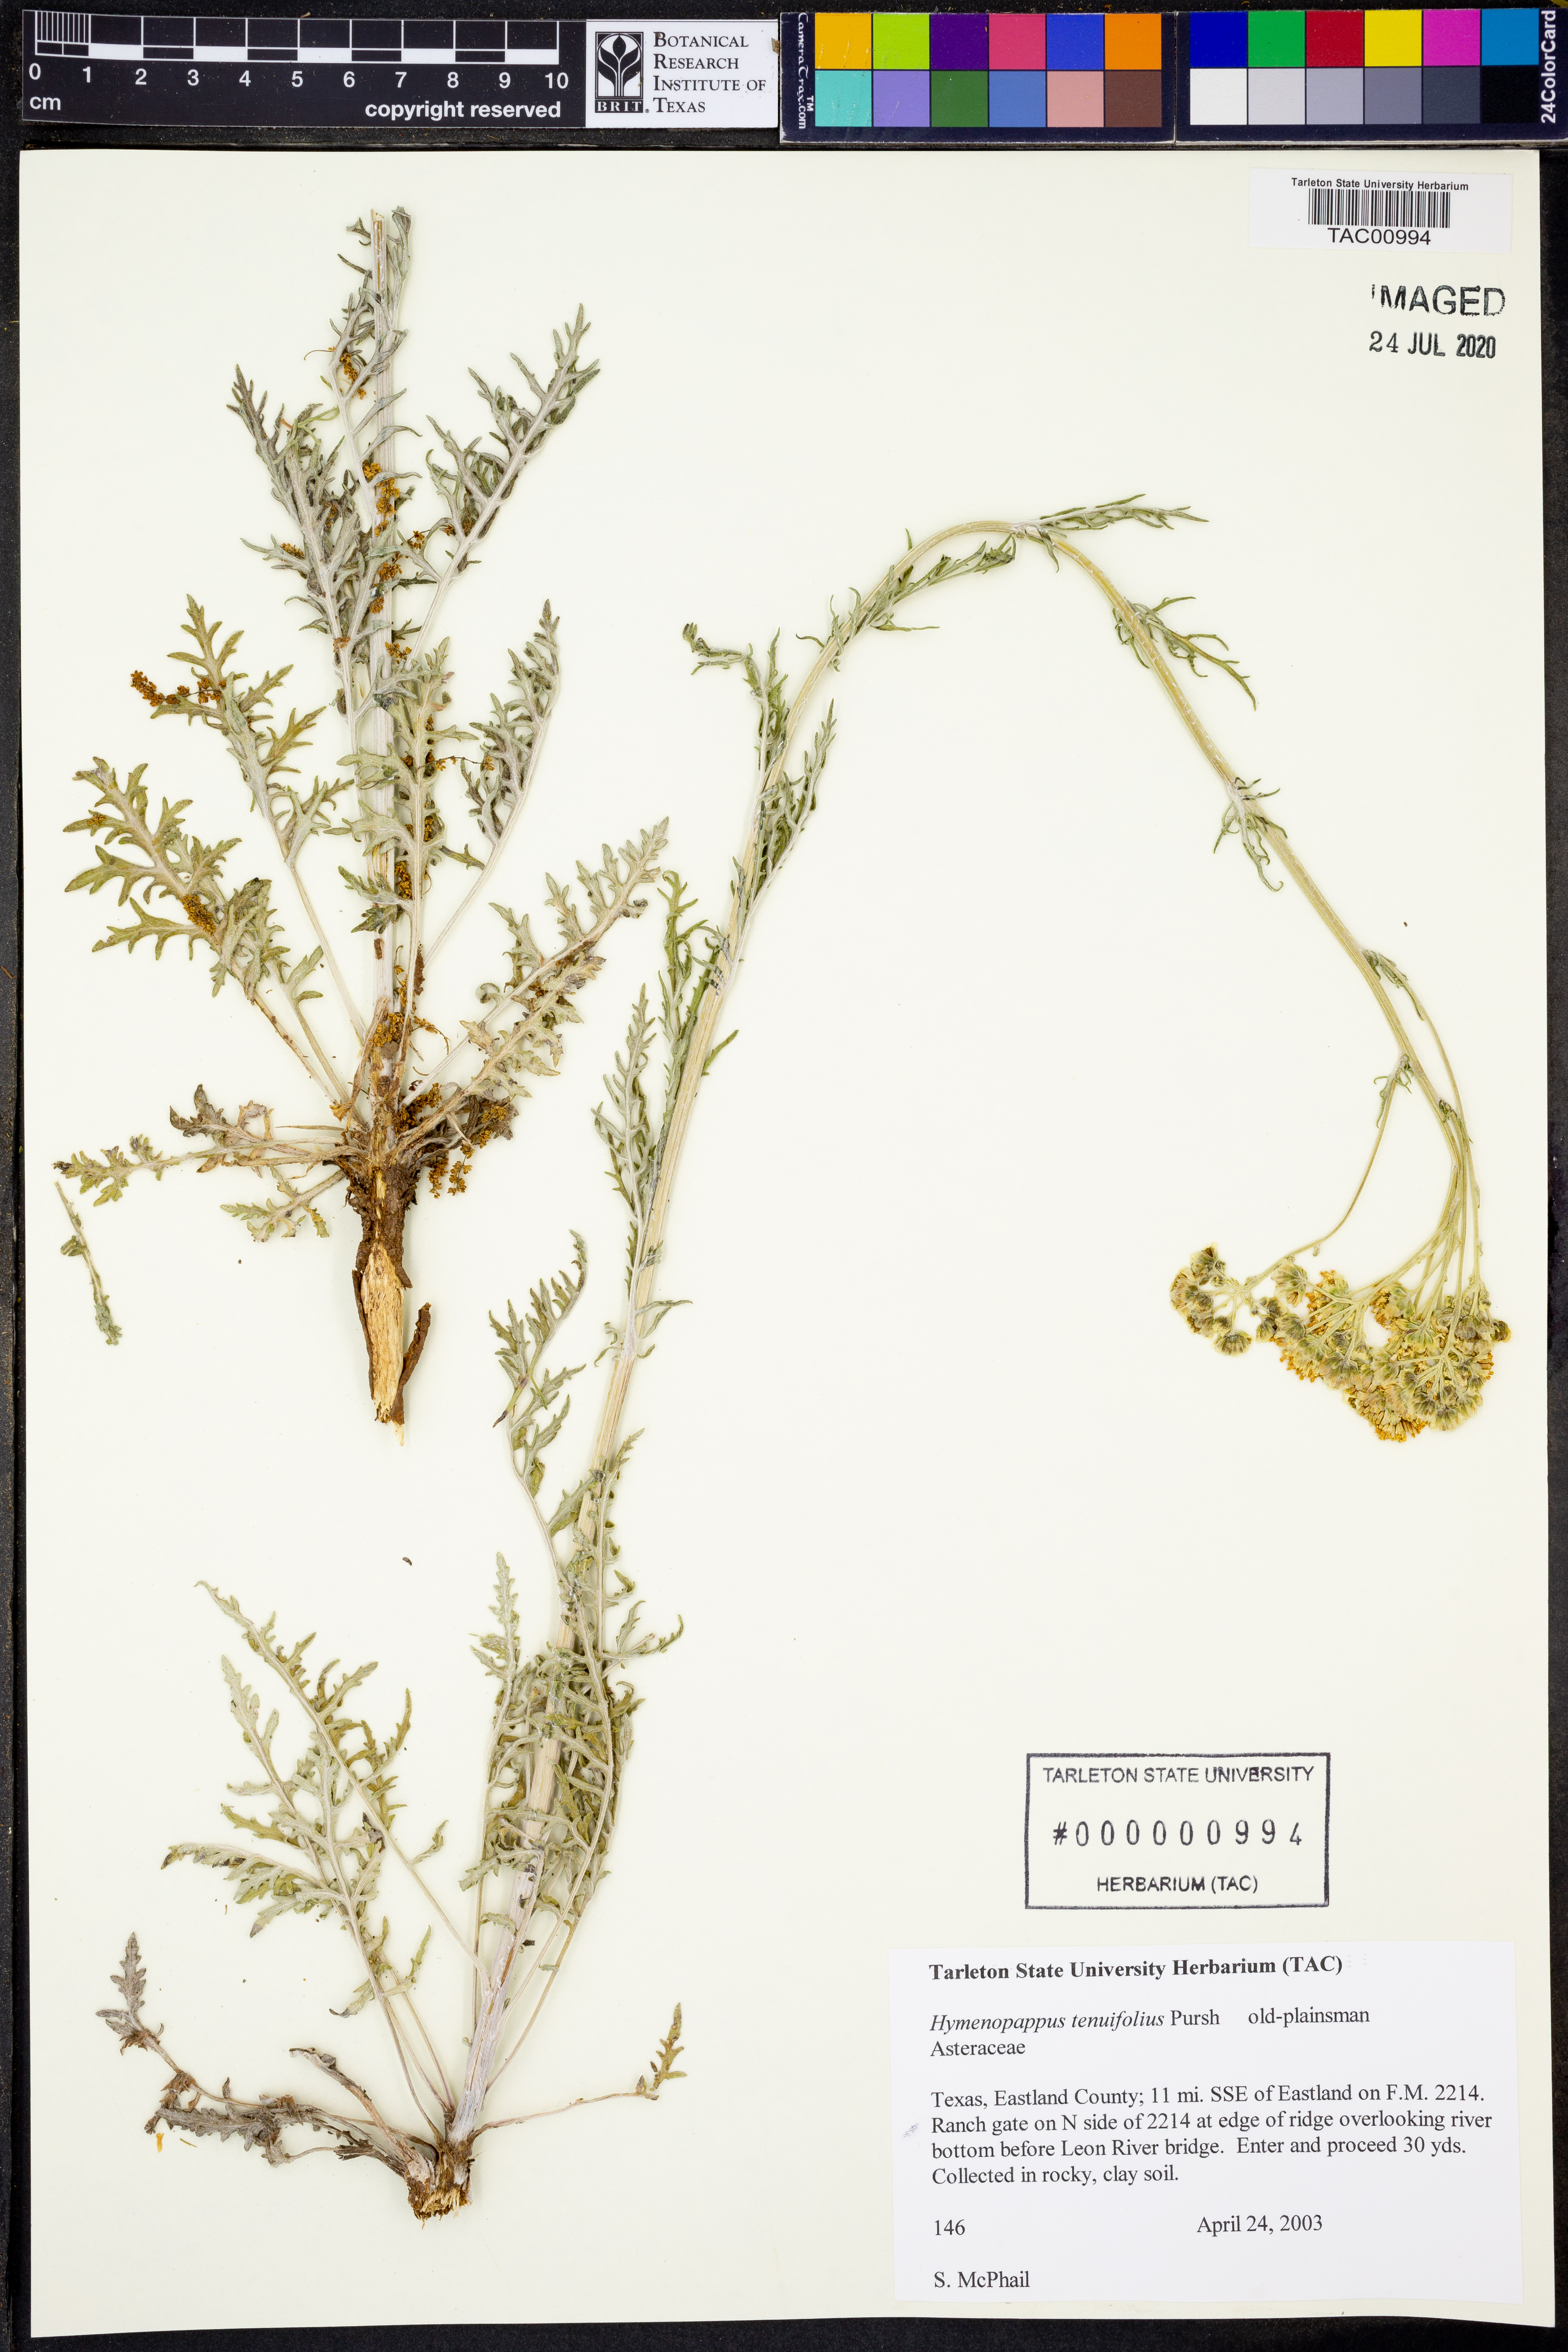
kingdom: Plantae
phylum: Tracheophyta
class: Magnoliopsida
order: Asterales
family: Asteraceae
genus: Hymenopappus
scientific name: Hymenopappus tenuifolius
